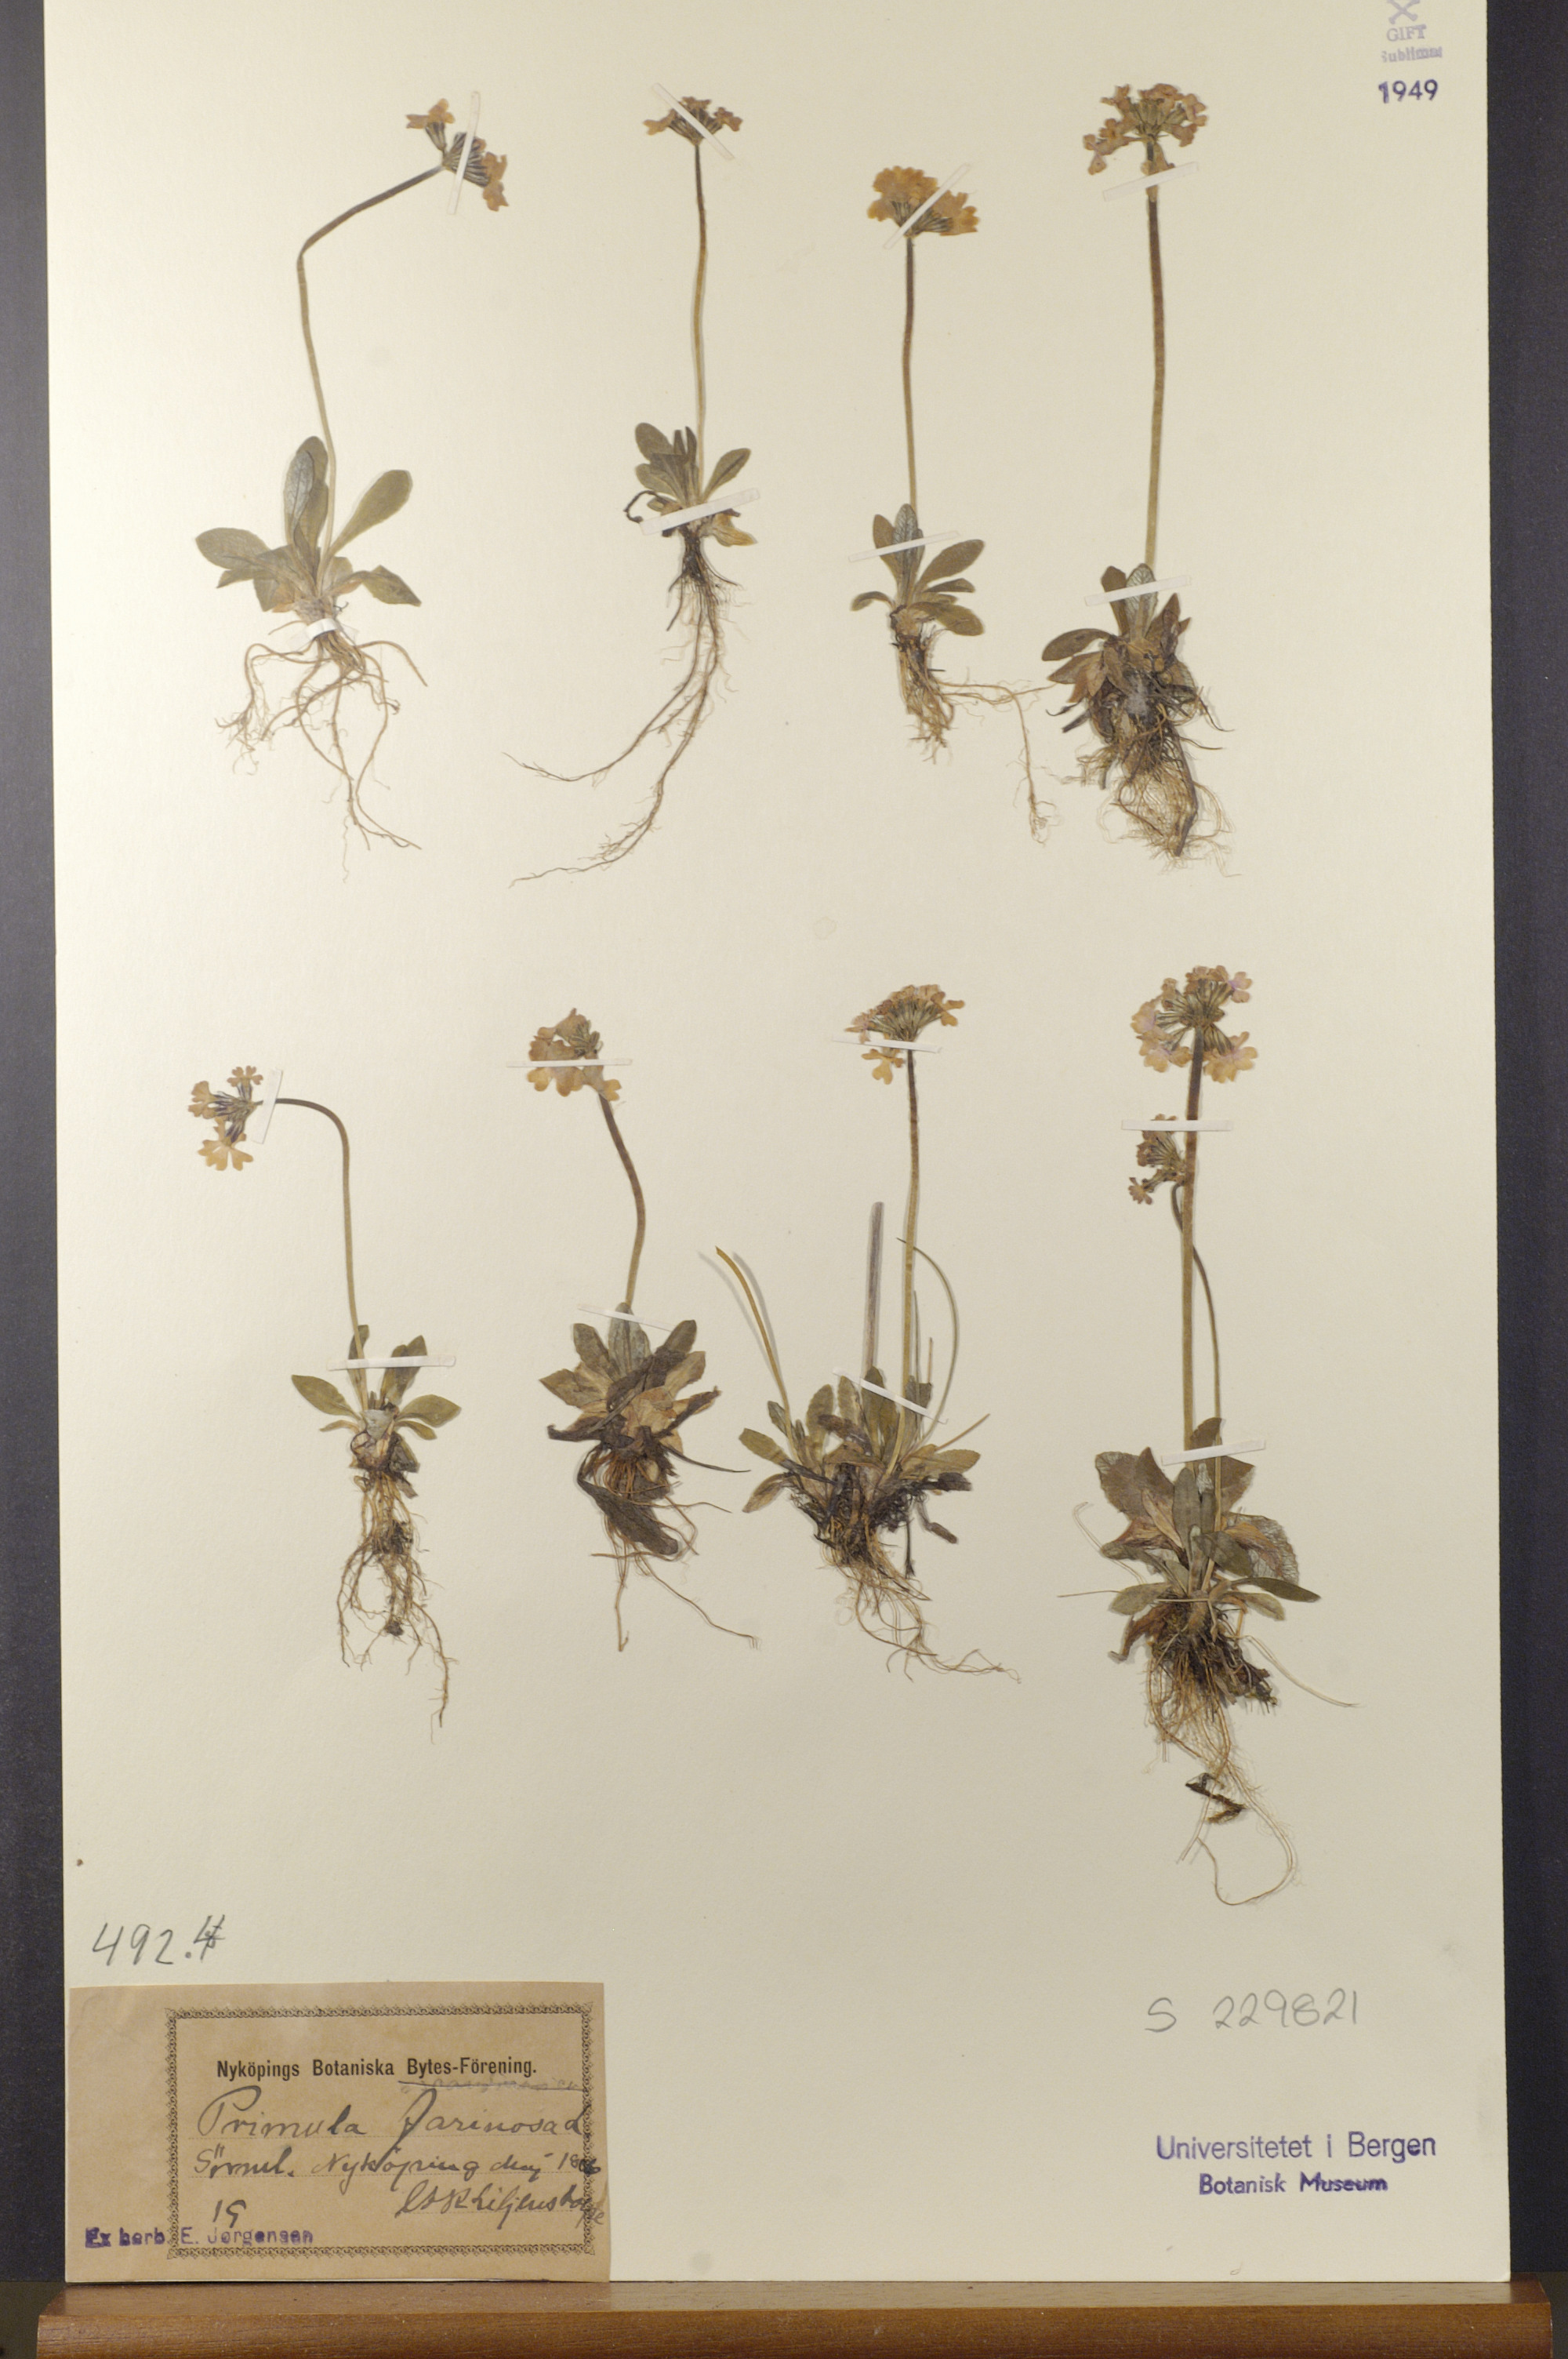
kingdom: Plantae
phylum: Tracheophyta
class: Magnoliopsida
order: Ericales
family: Primulaceae
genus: Primula
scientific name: Primula farinosa
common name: Bird's-eye primrose
